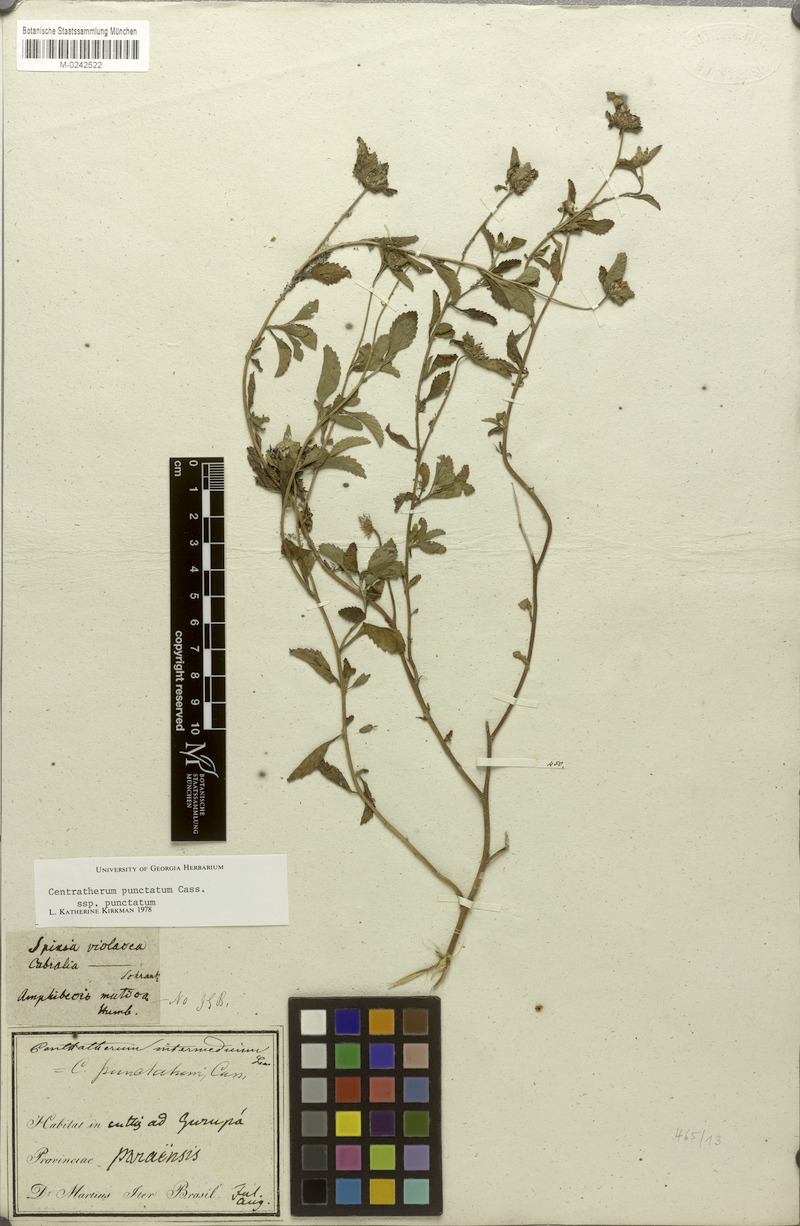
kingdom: Plantae
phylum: Tracheophyta
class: Magnoliopsida
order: Asterales
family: Asteraceae
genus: Centratherum
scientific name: Centratherum punctatum
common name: Larkdaisy
